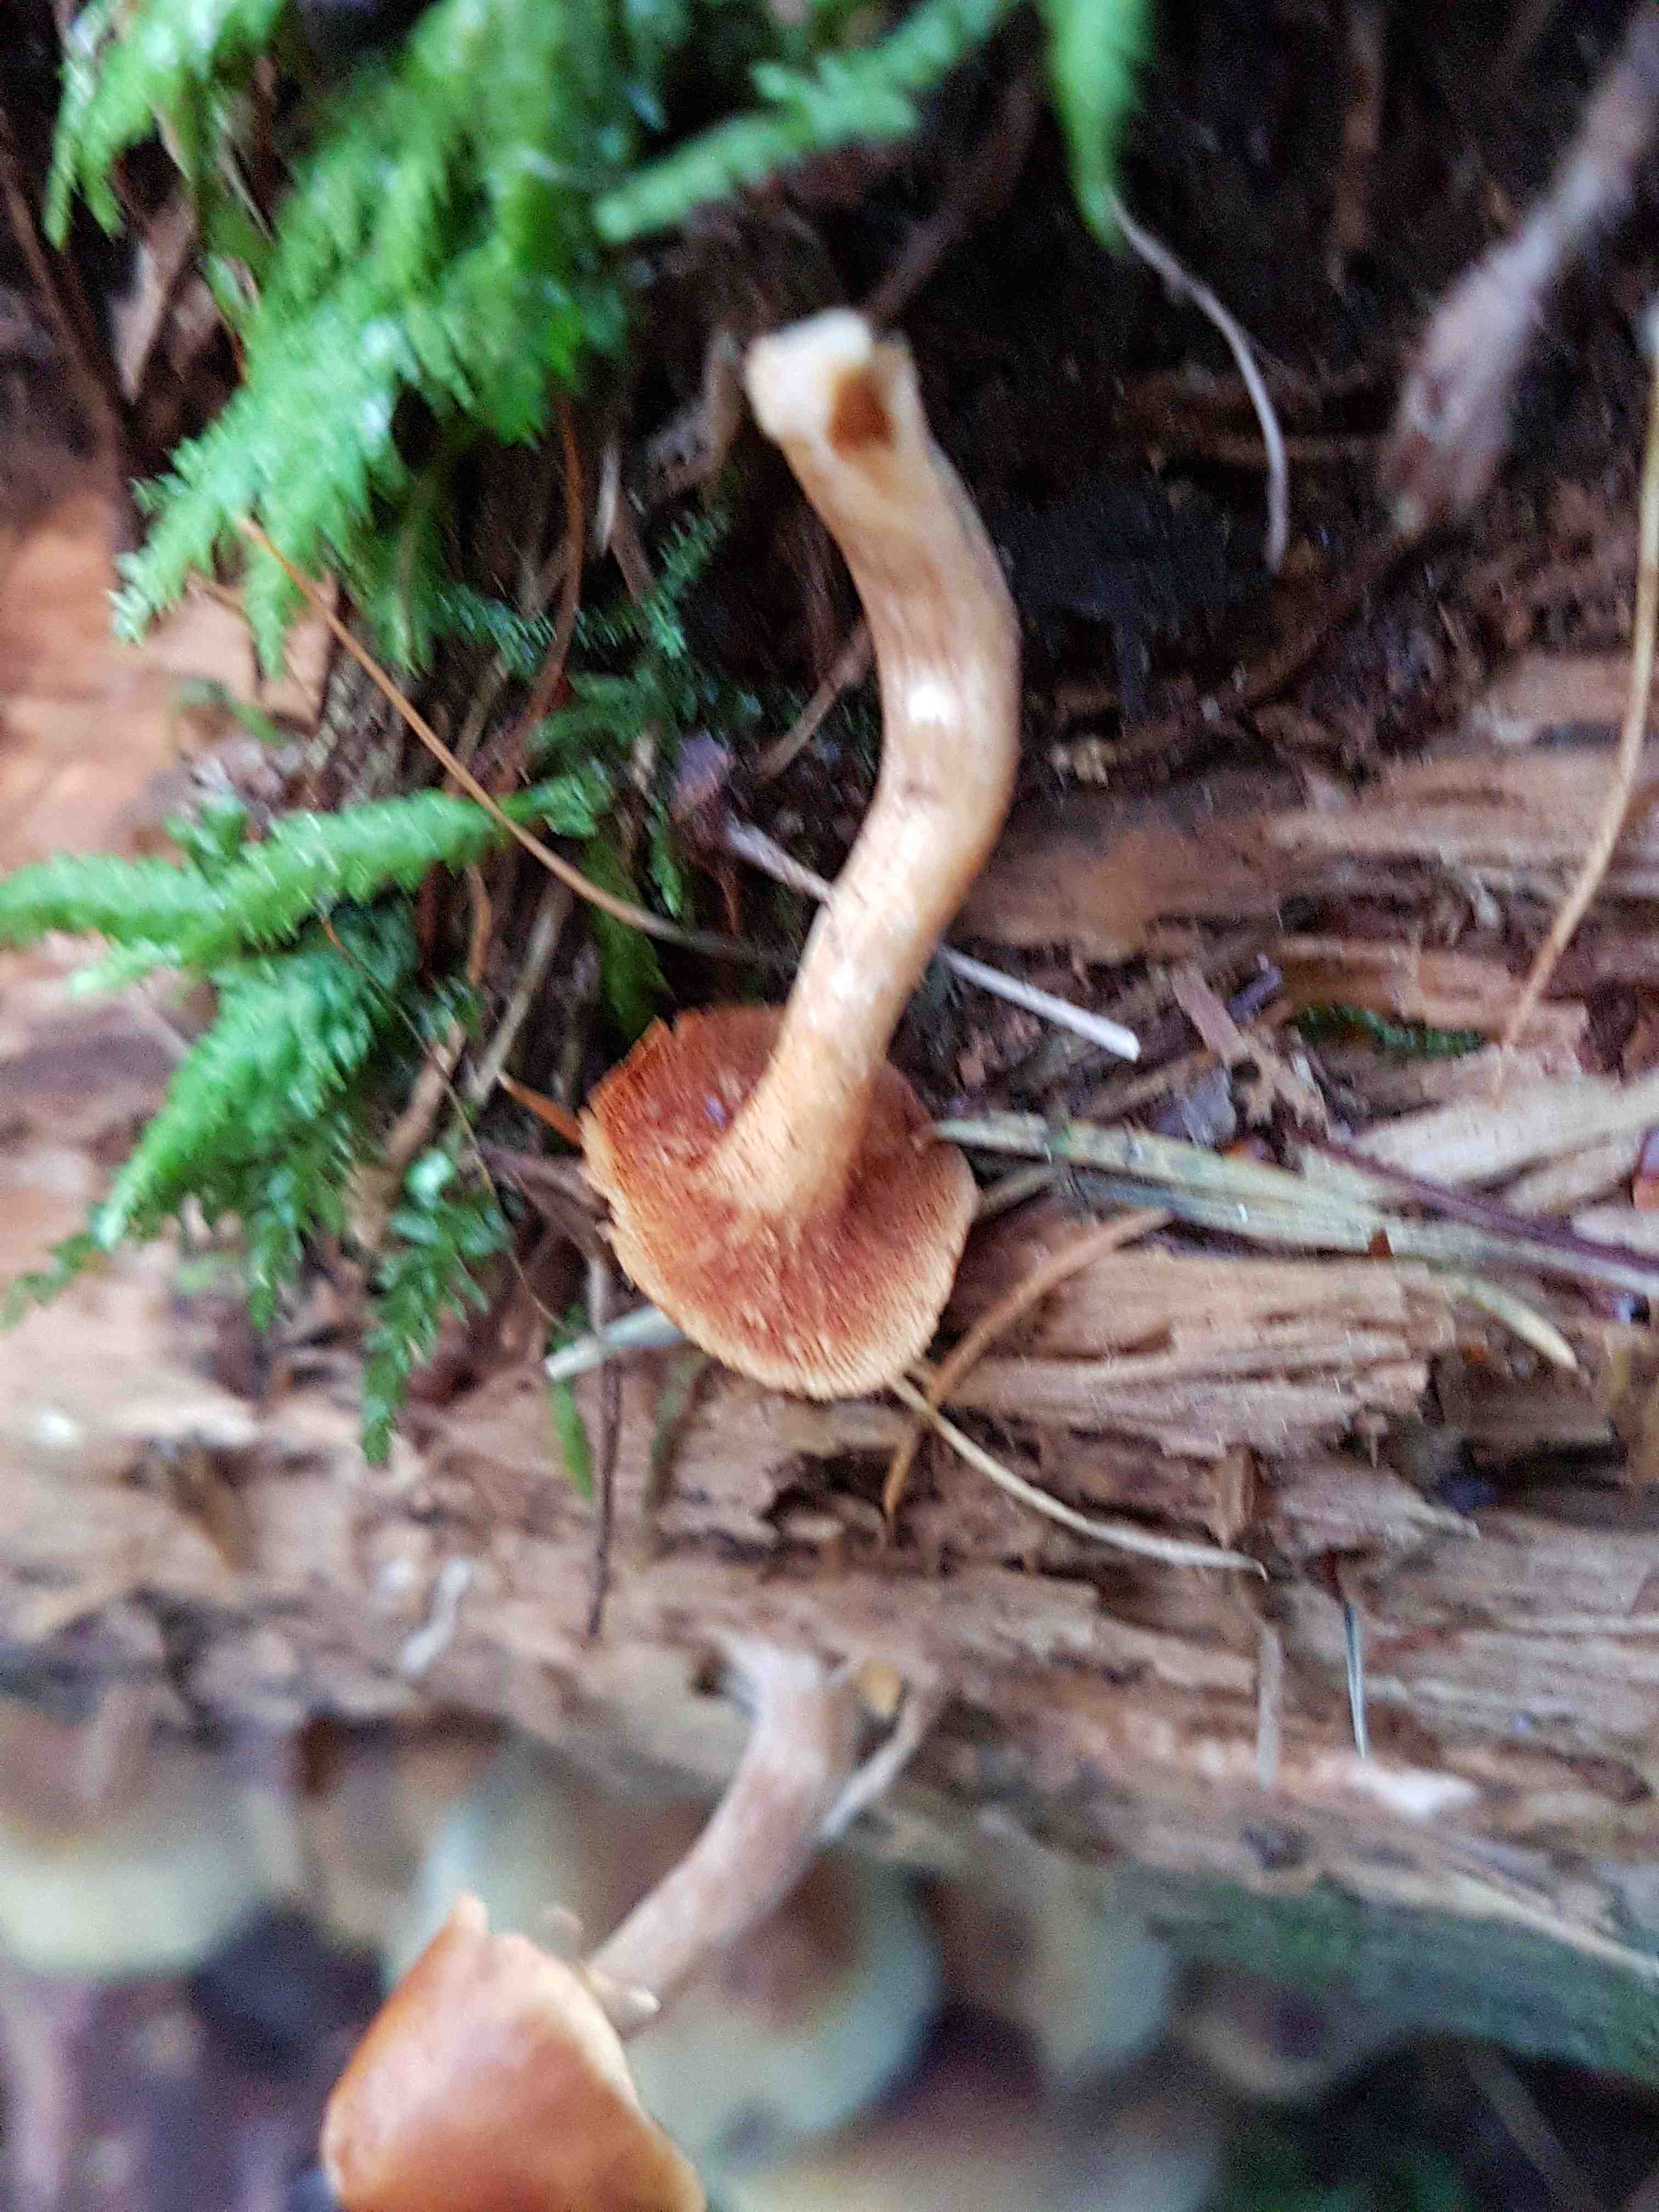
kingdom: Fungi
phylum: Basidiomycota
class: Agaricomycetes
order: Agaricales
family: Hymenogastraceae
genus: Gymnopilus
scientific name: Gymnopilus penetrans
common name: plettet flammehat
